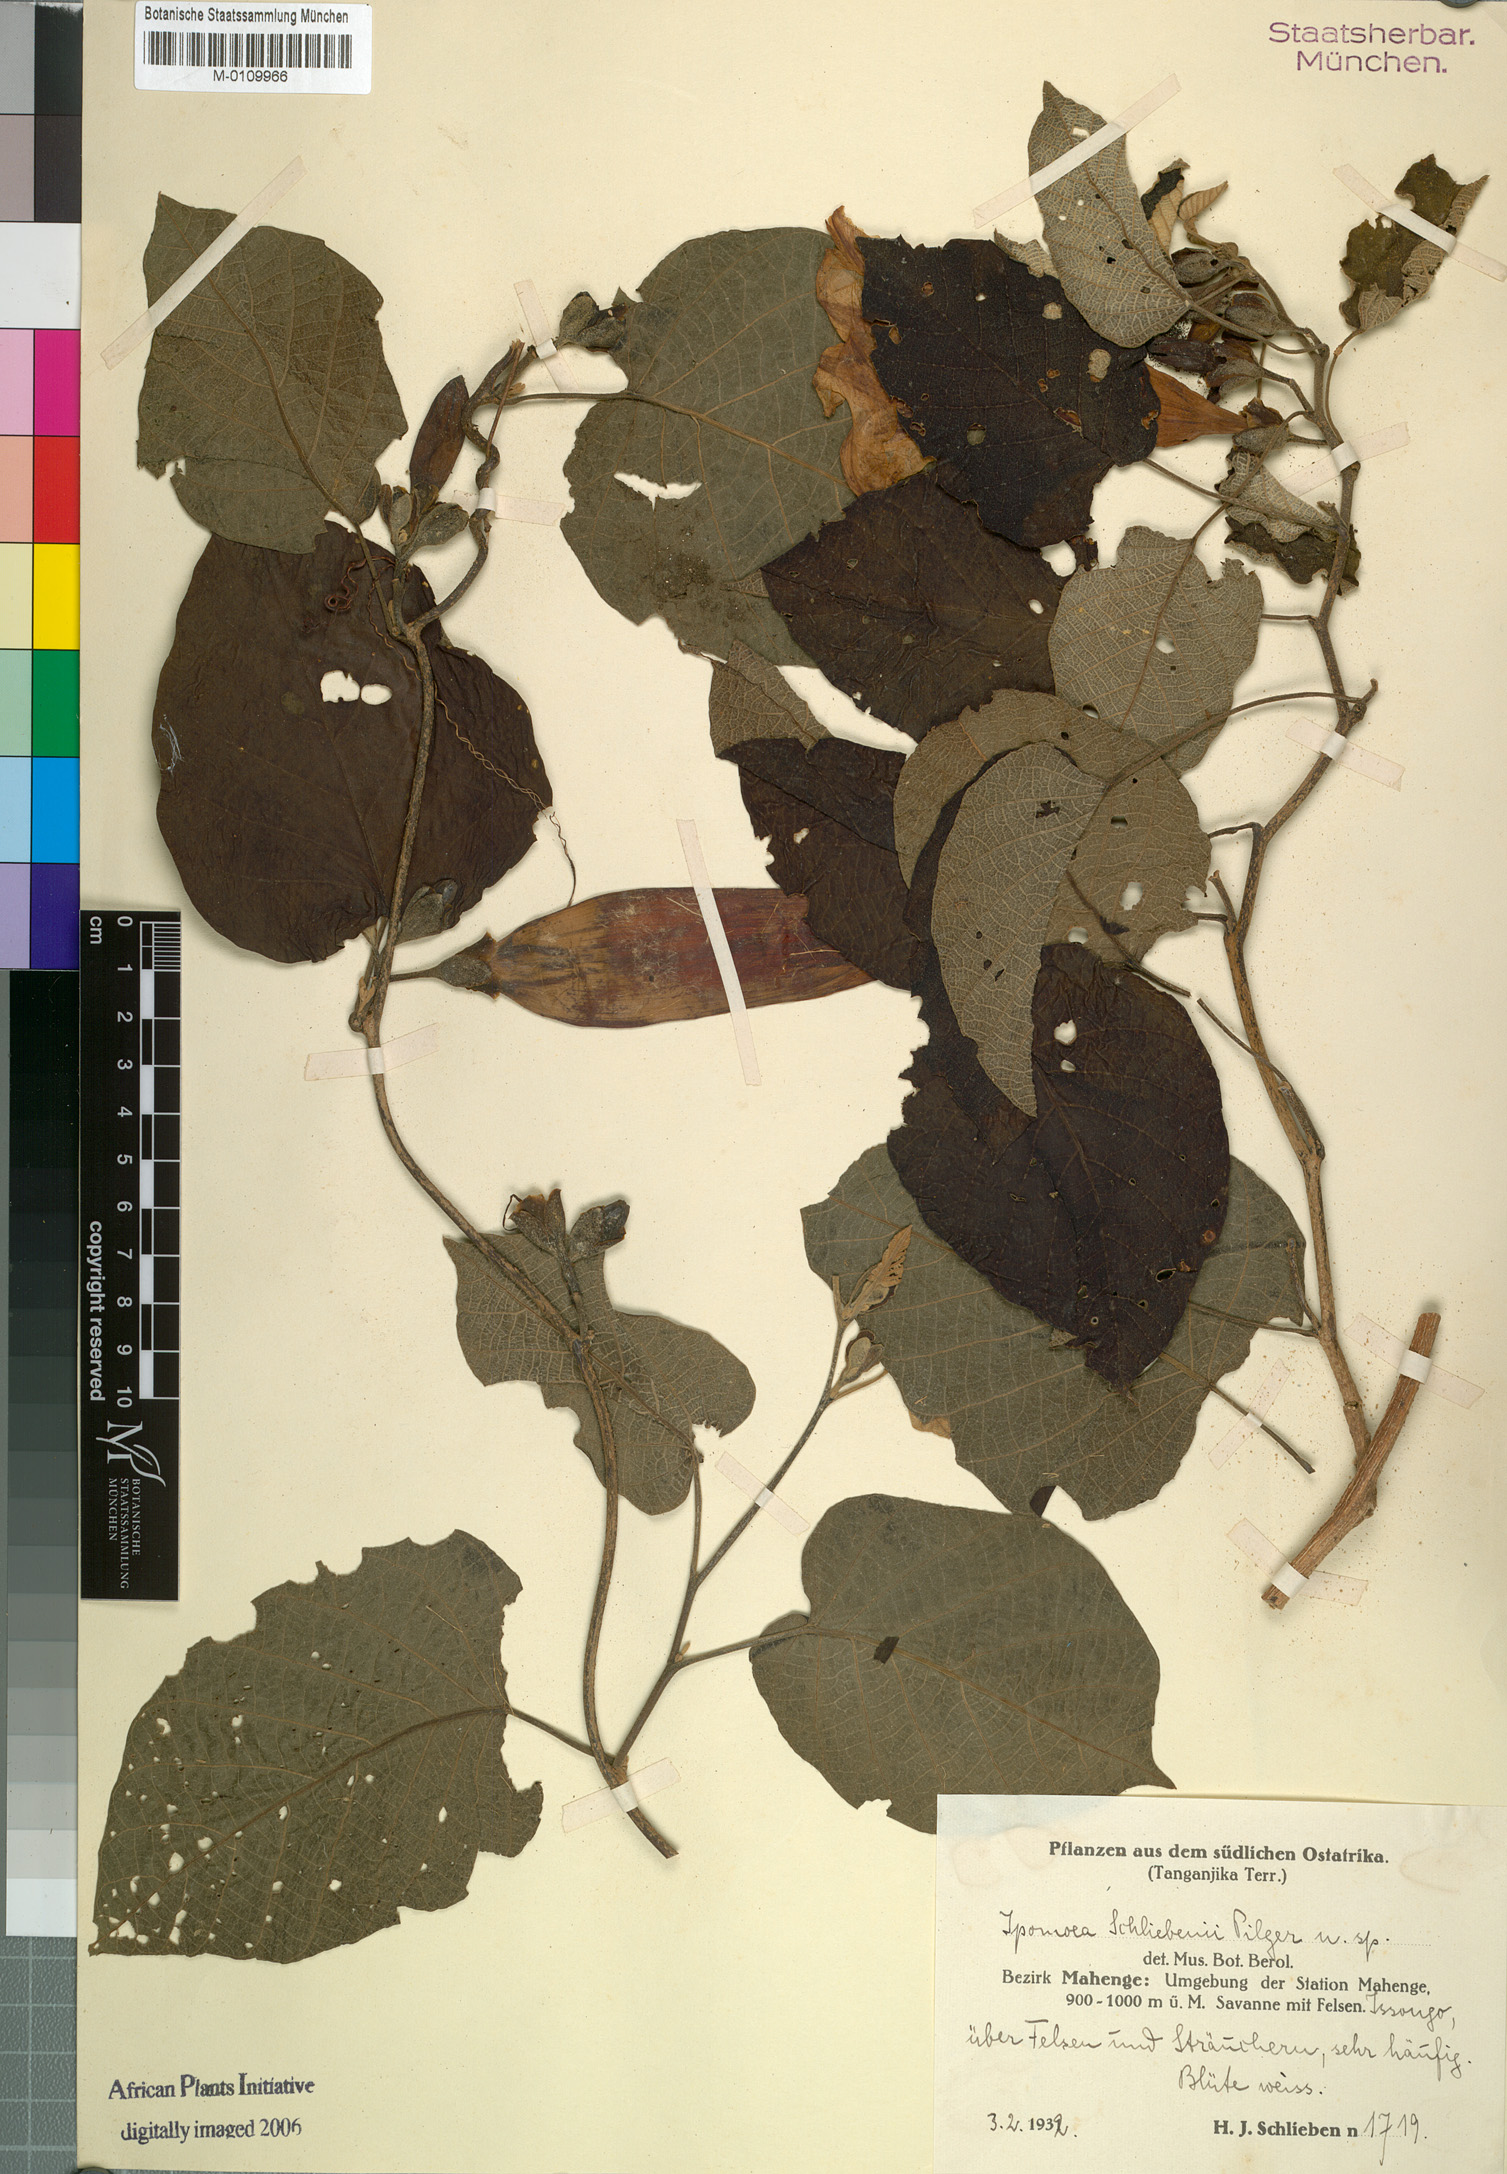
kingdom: Plantae
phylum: Tracheophyta
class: Magnoliopsida
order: Solanales
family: Convolvulaceae
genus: Ipomoea
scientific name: Ipomoea
